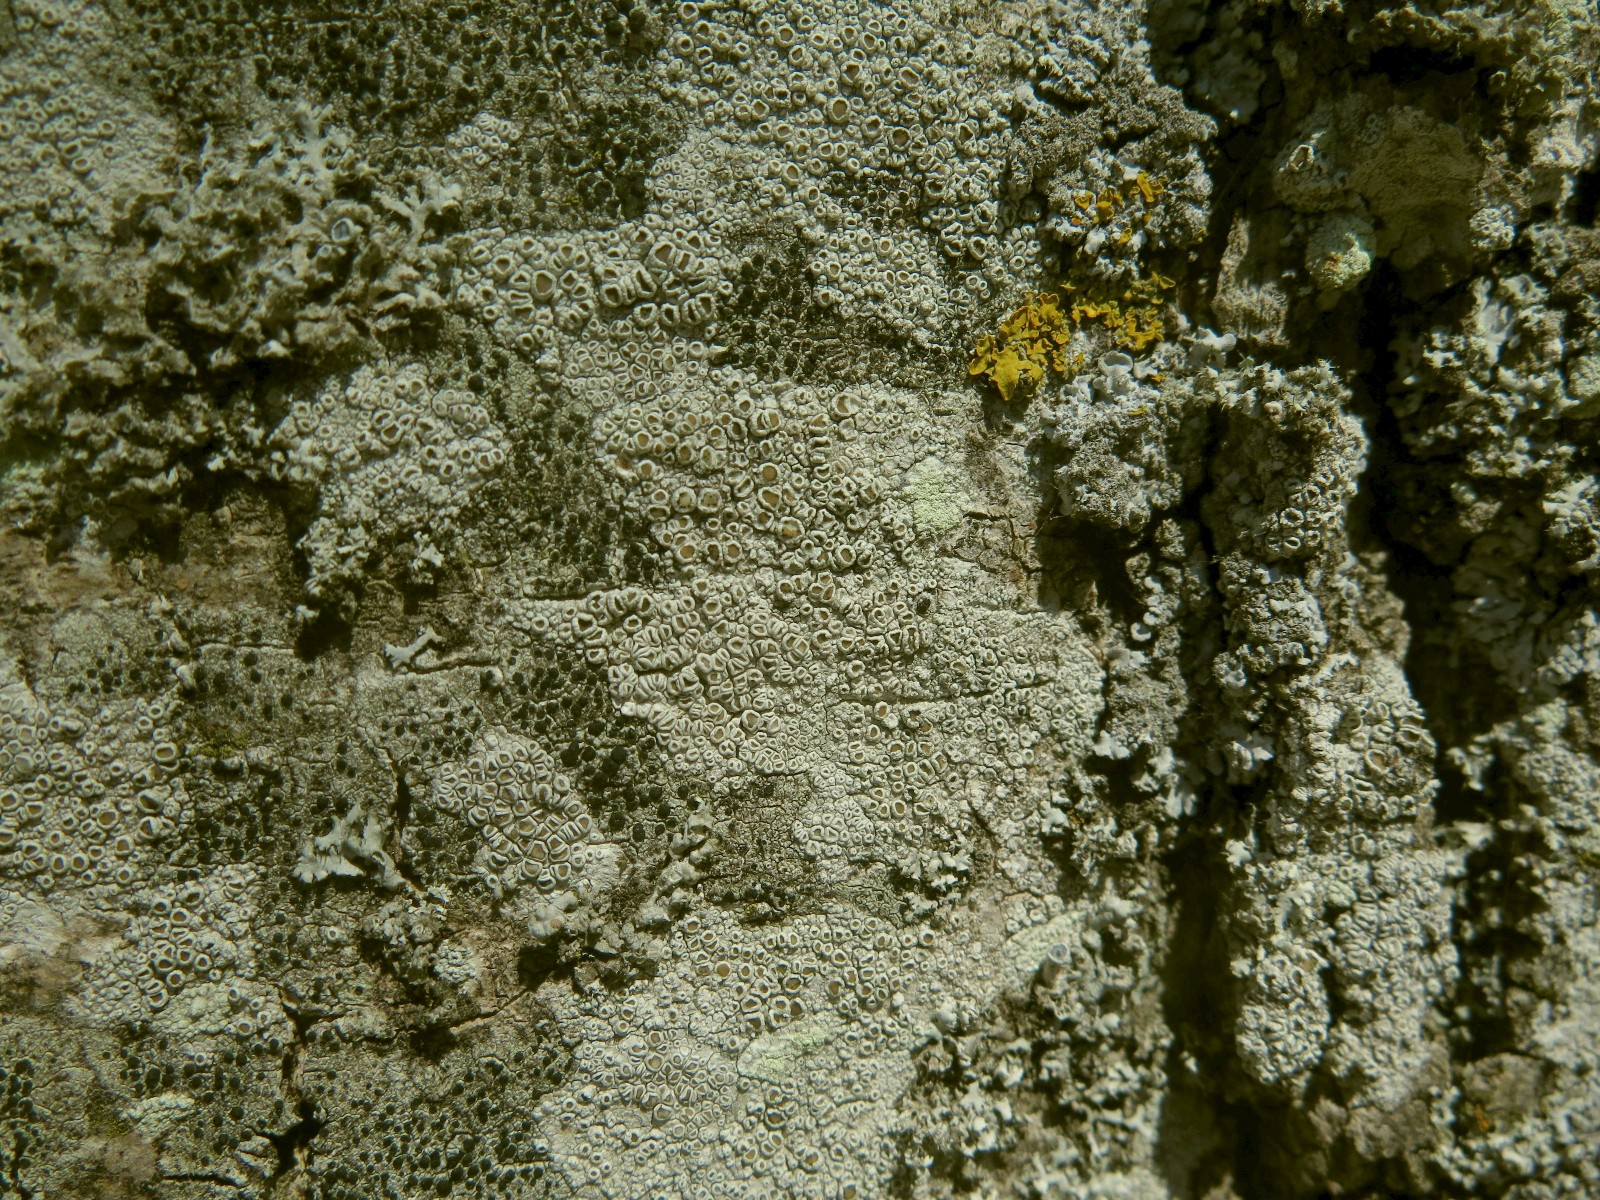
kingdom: Fungi
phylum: Ascomycota
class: Lecanoromycetes
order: Lecanorales
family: Lecanoraceae
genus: Lecanora
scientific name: Lecanora chlarotera
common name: brun kantskivelav
